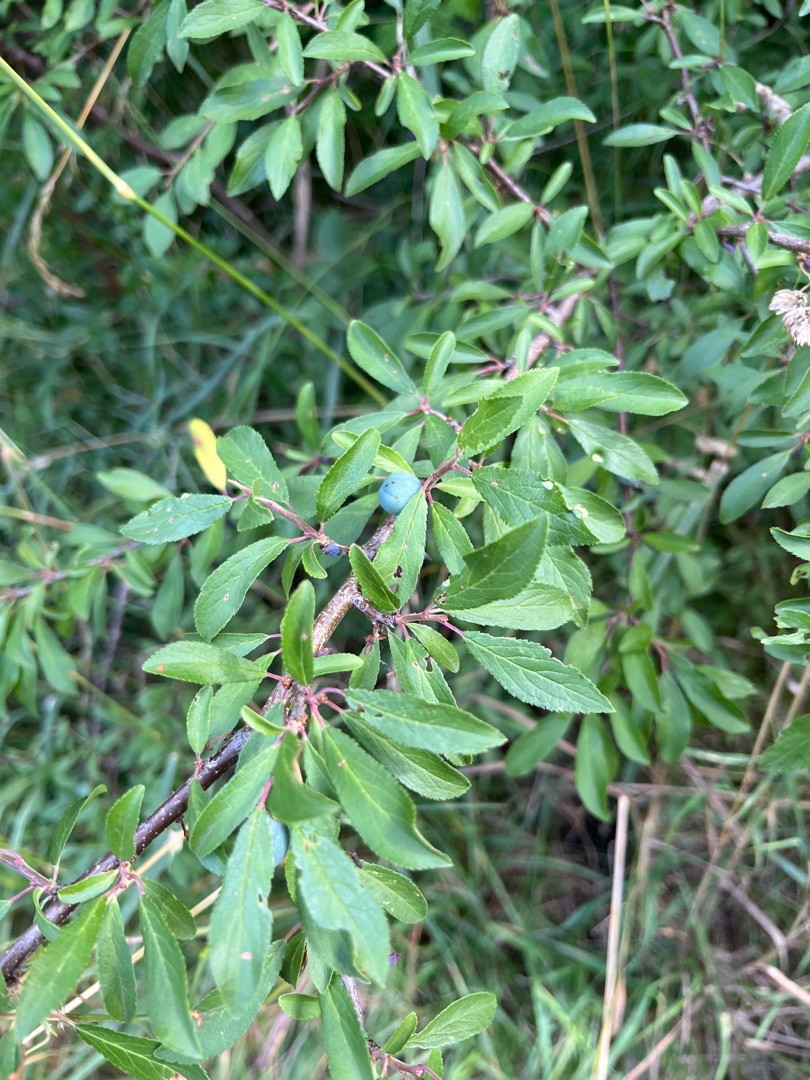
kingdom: Plantae
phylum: Tracheophyta
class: Magnoliopsida
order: Rosales
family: Rosaceae
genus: Prunus
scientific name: Prunus spinosa
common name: Slåen
